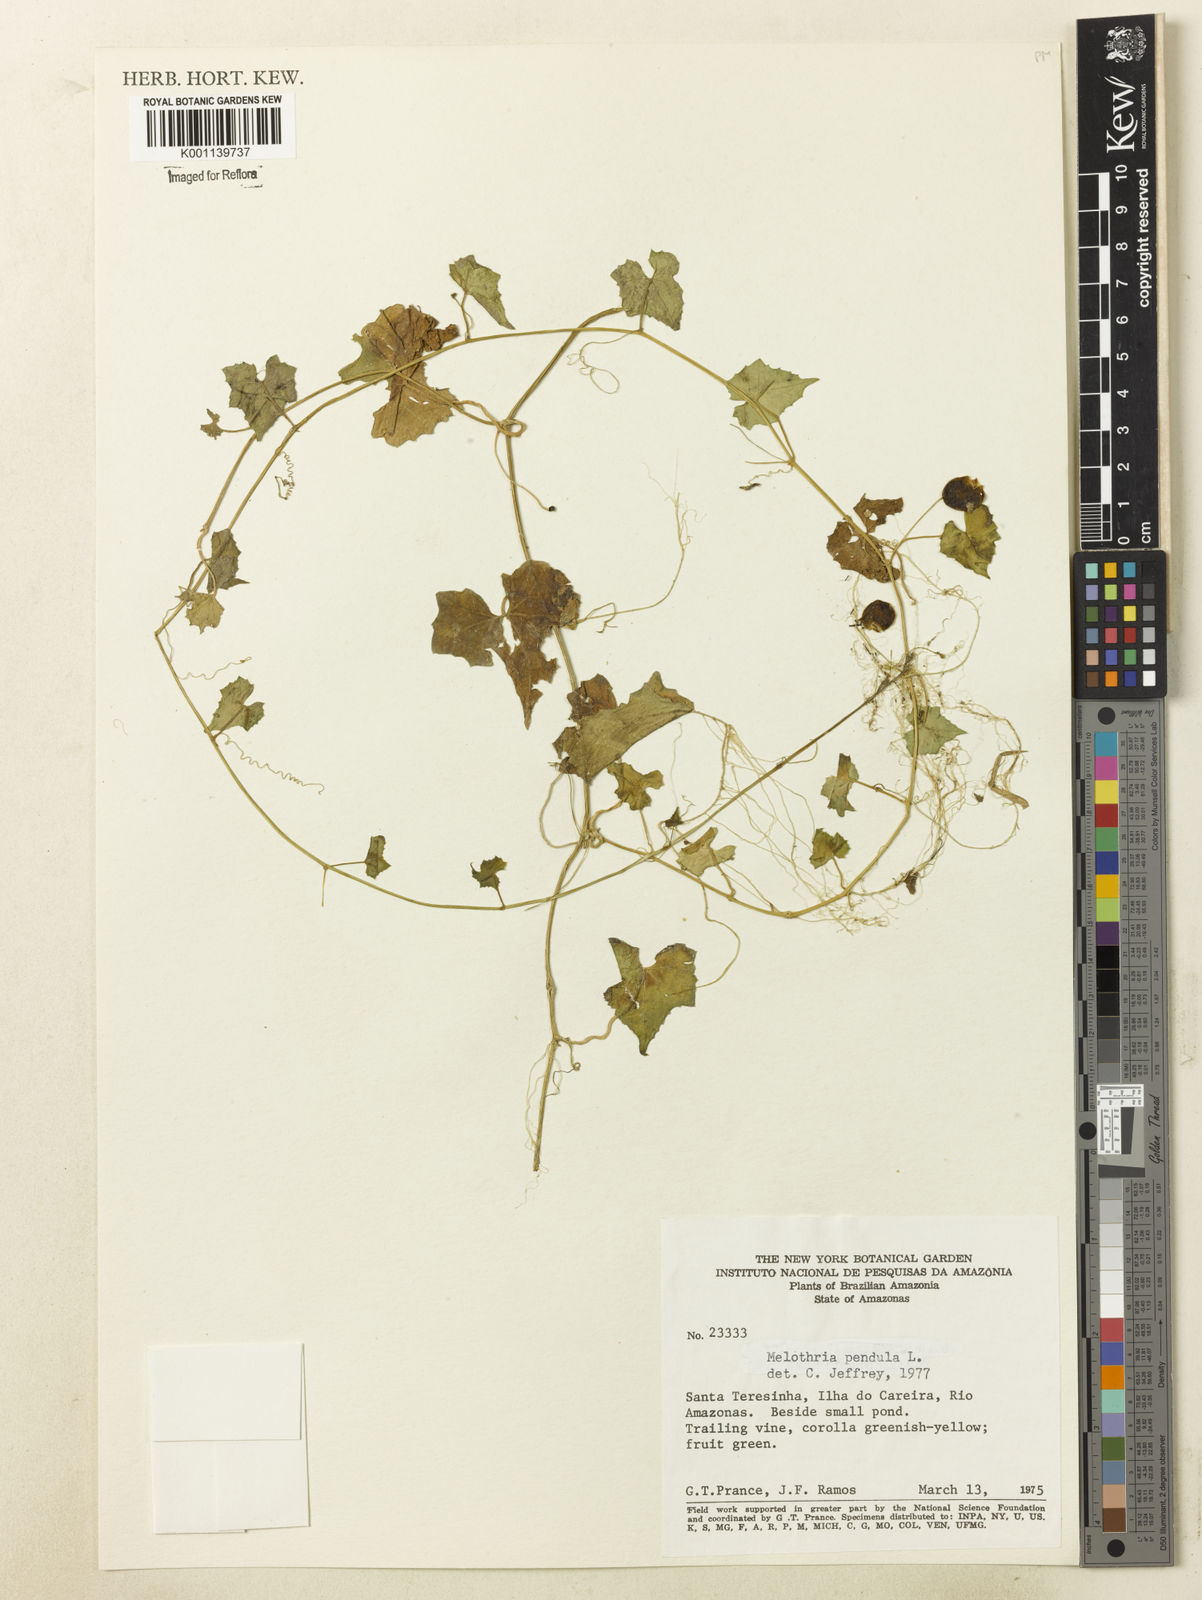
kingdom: Plantae
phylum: Tracheophyta
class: Magnoliopsida
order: Cucurbitales
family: Cucurbitaceae
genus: Melothria
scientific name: Melothria pendula
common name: Creeping-cucumber
